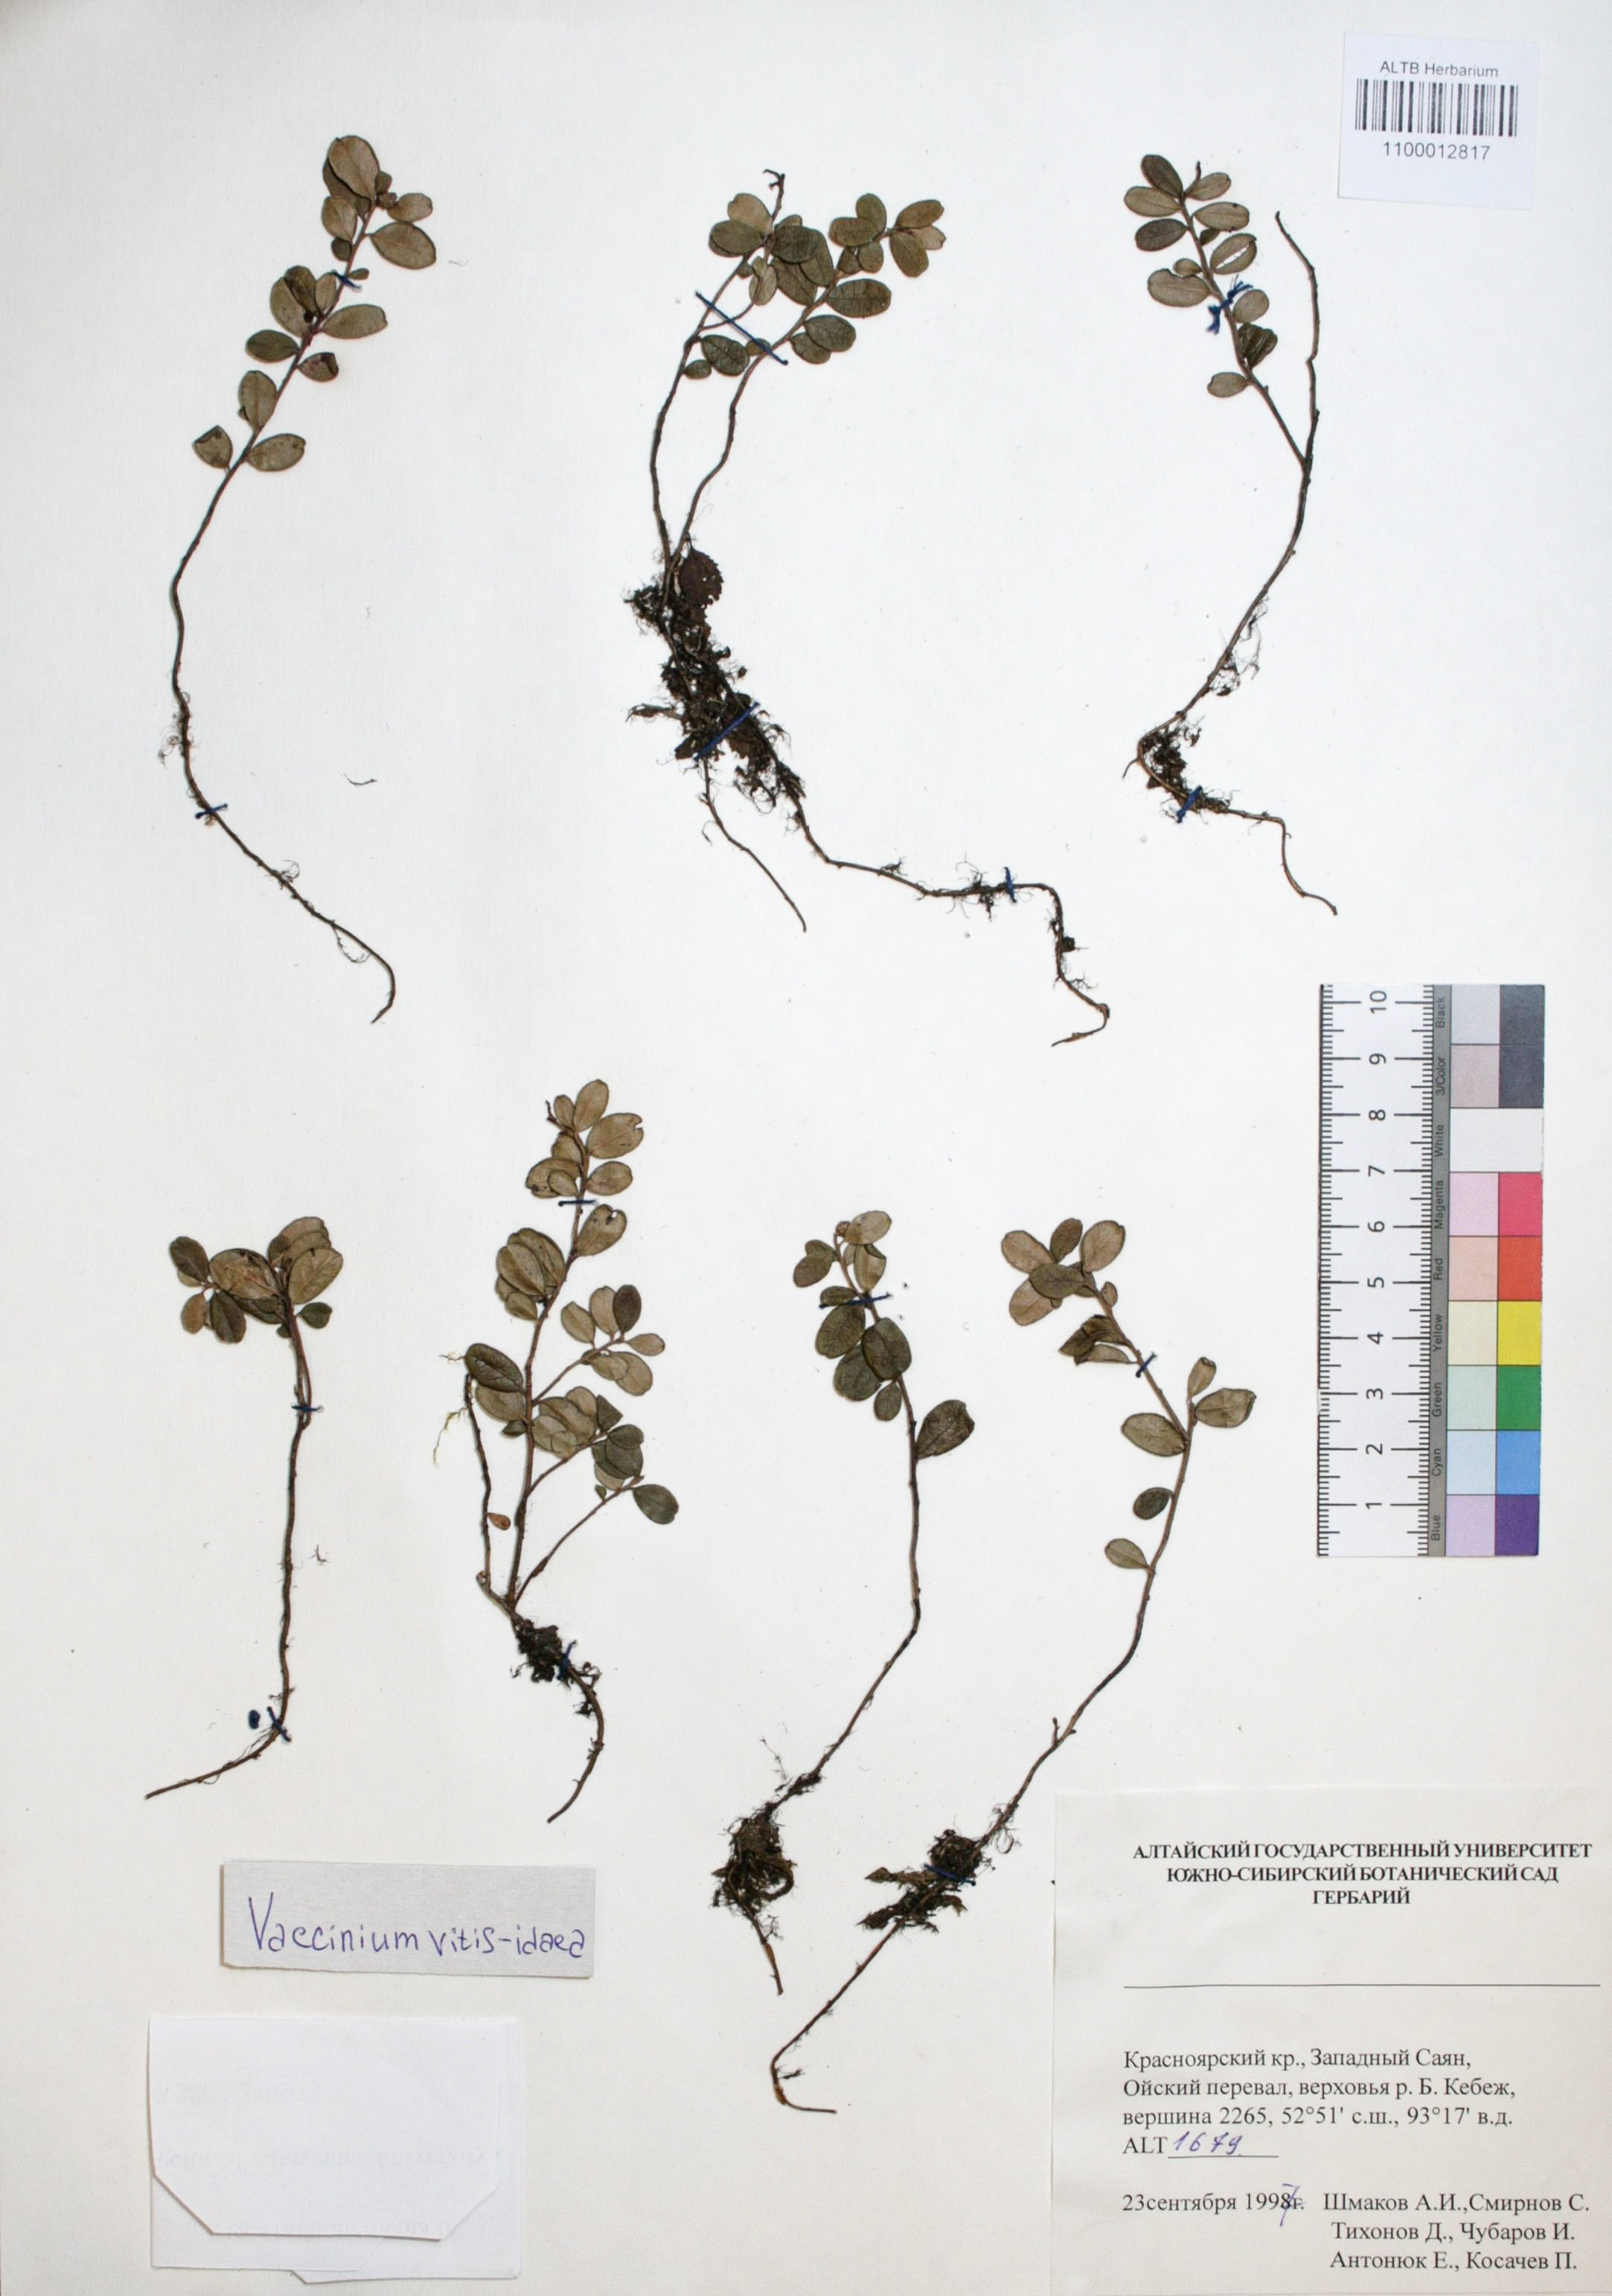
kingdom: Plantae
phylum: Tracheophyta
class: Magnoliopsida
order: Ericales
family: Ericaceae
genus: Vaccinium
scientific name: Vaccinium vitis-idaea
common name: Cowberry
